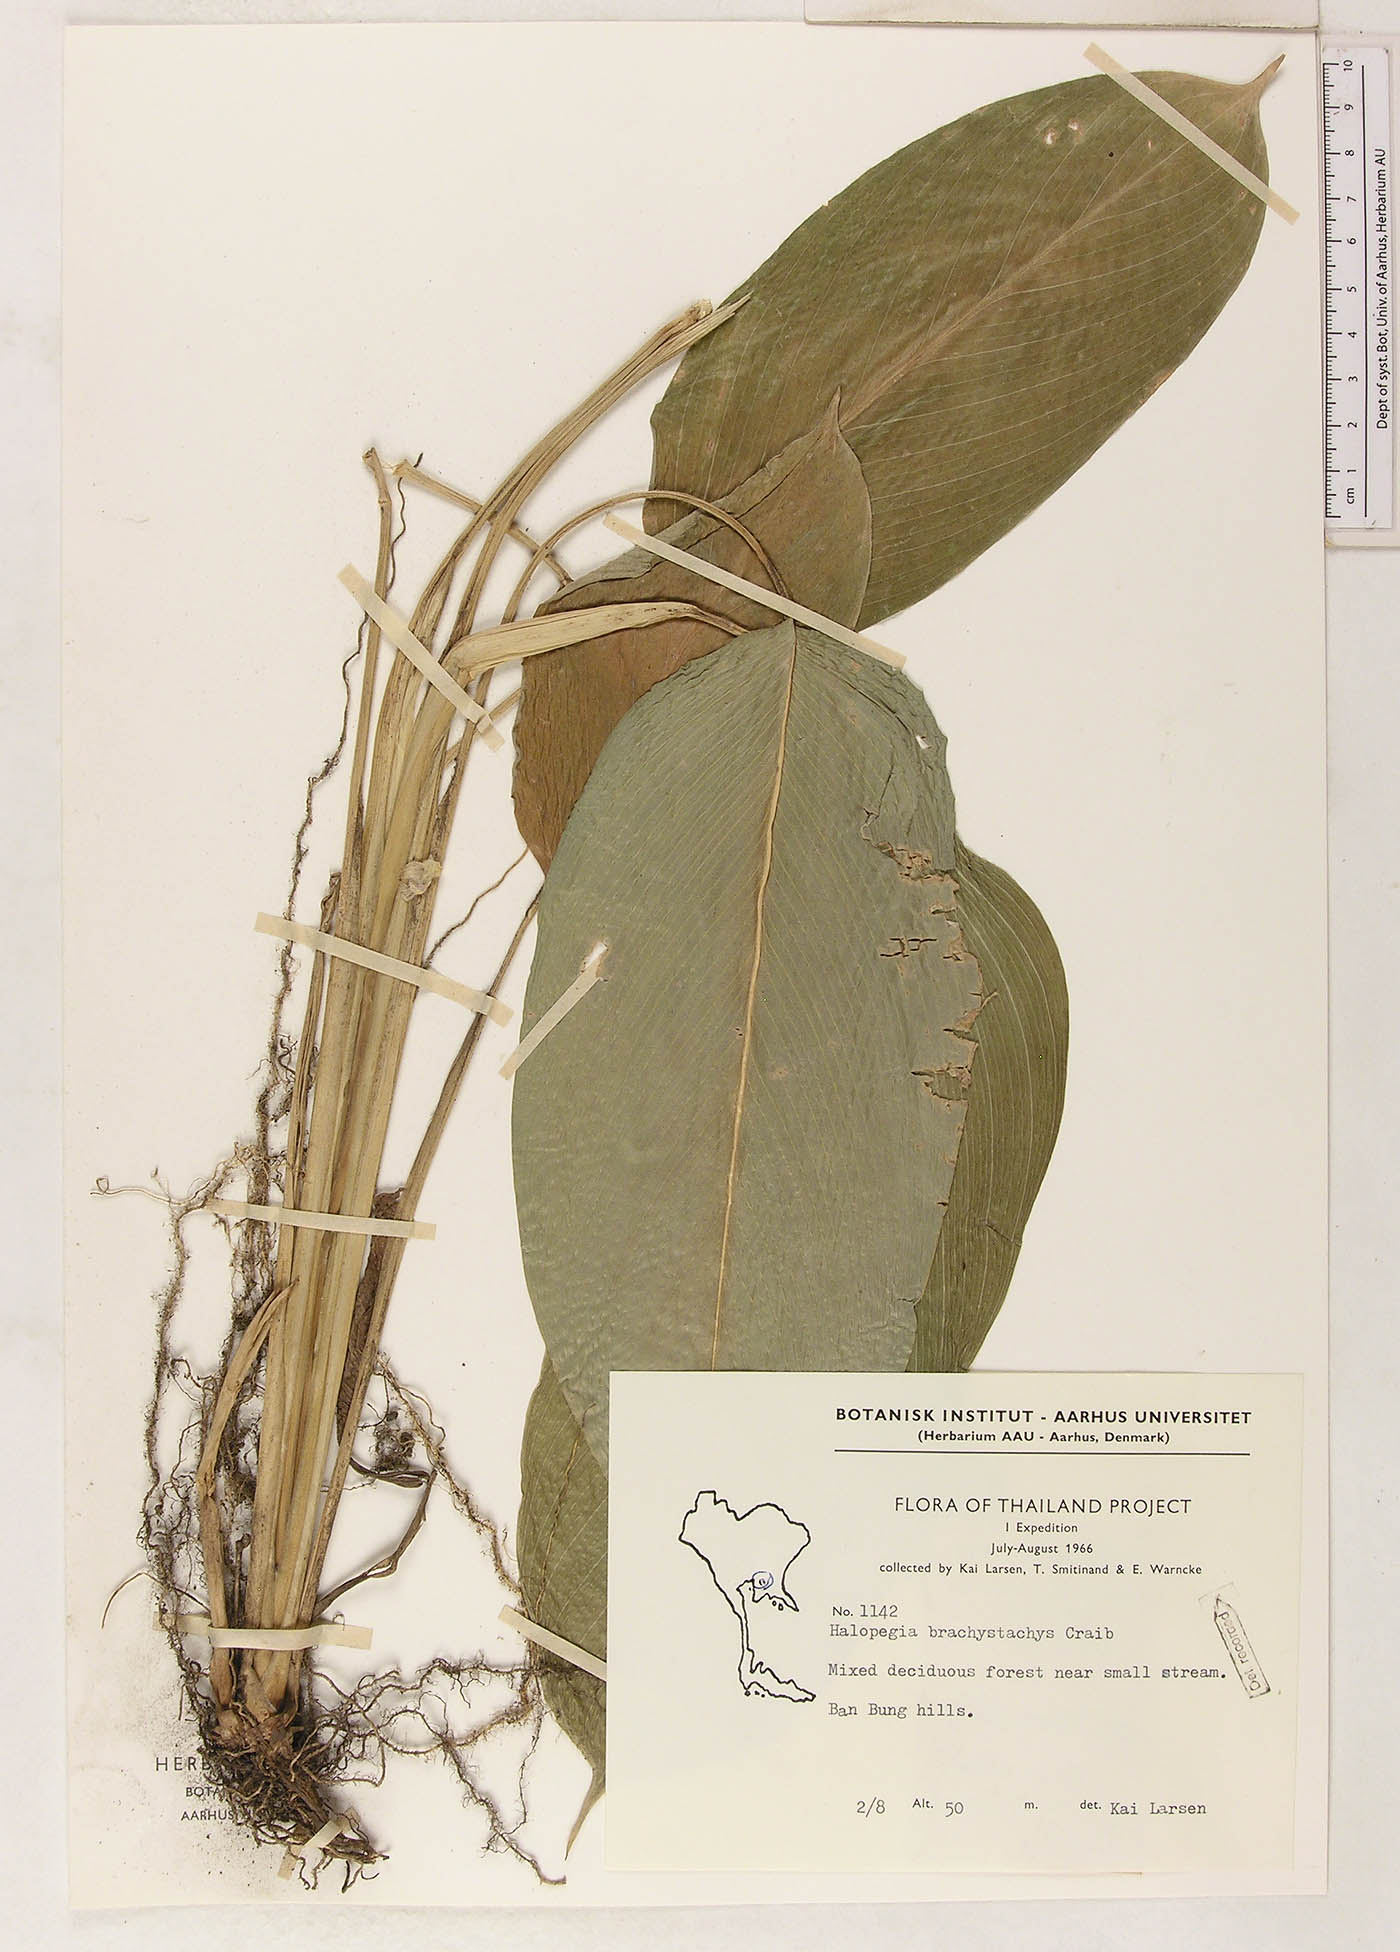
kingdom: Plantae
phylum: Tracheophyta
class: Liliopsida
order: Zingiberales
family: Marantaceae
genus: Halopegia
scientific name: Halopegia blumei
